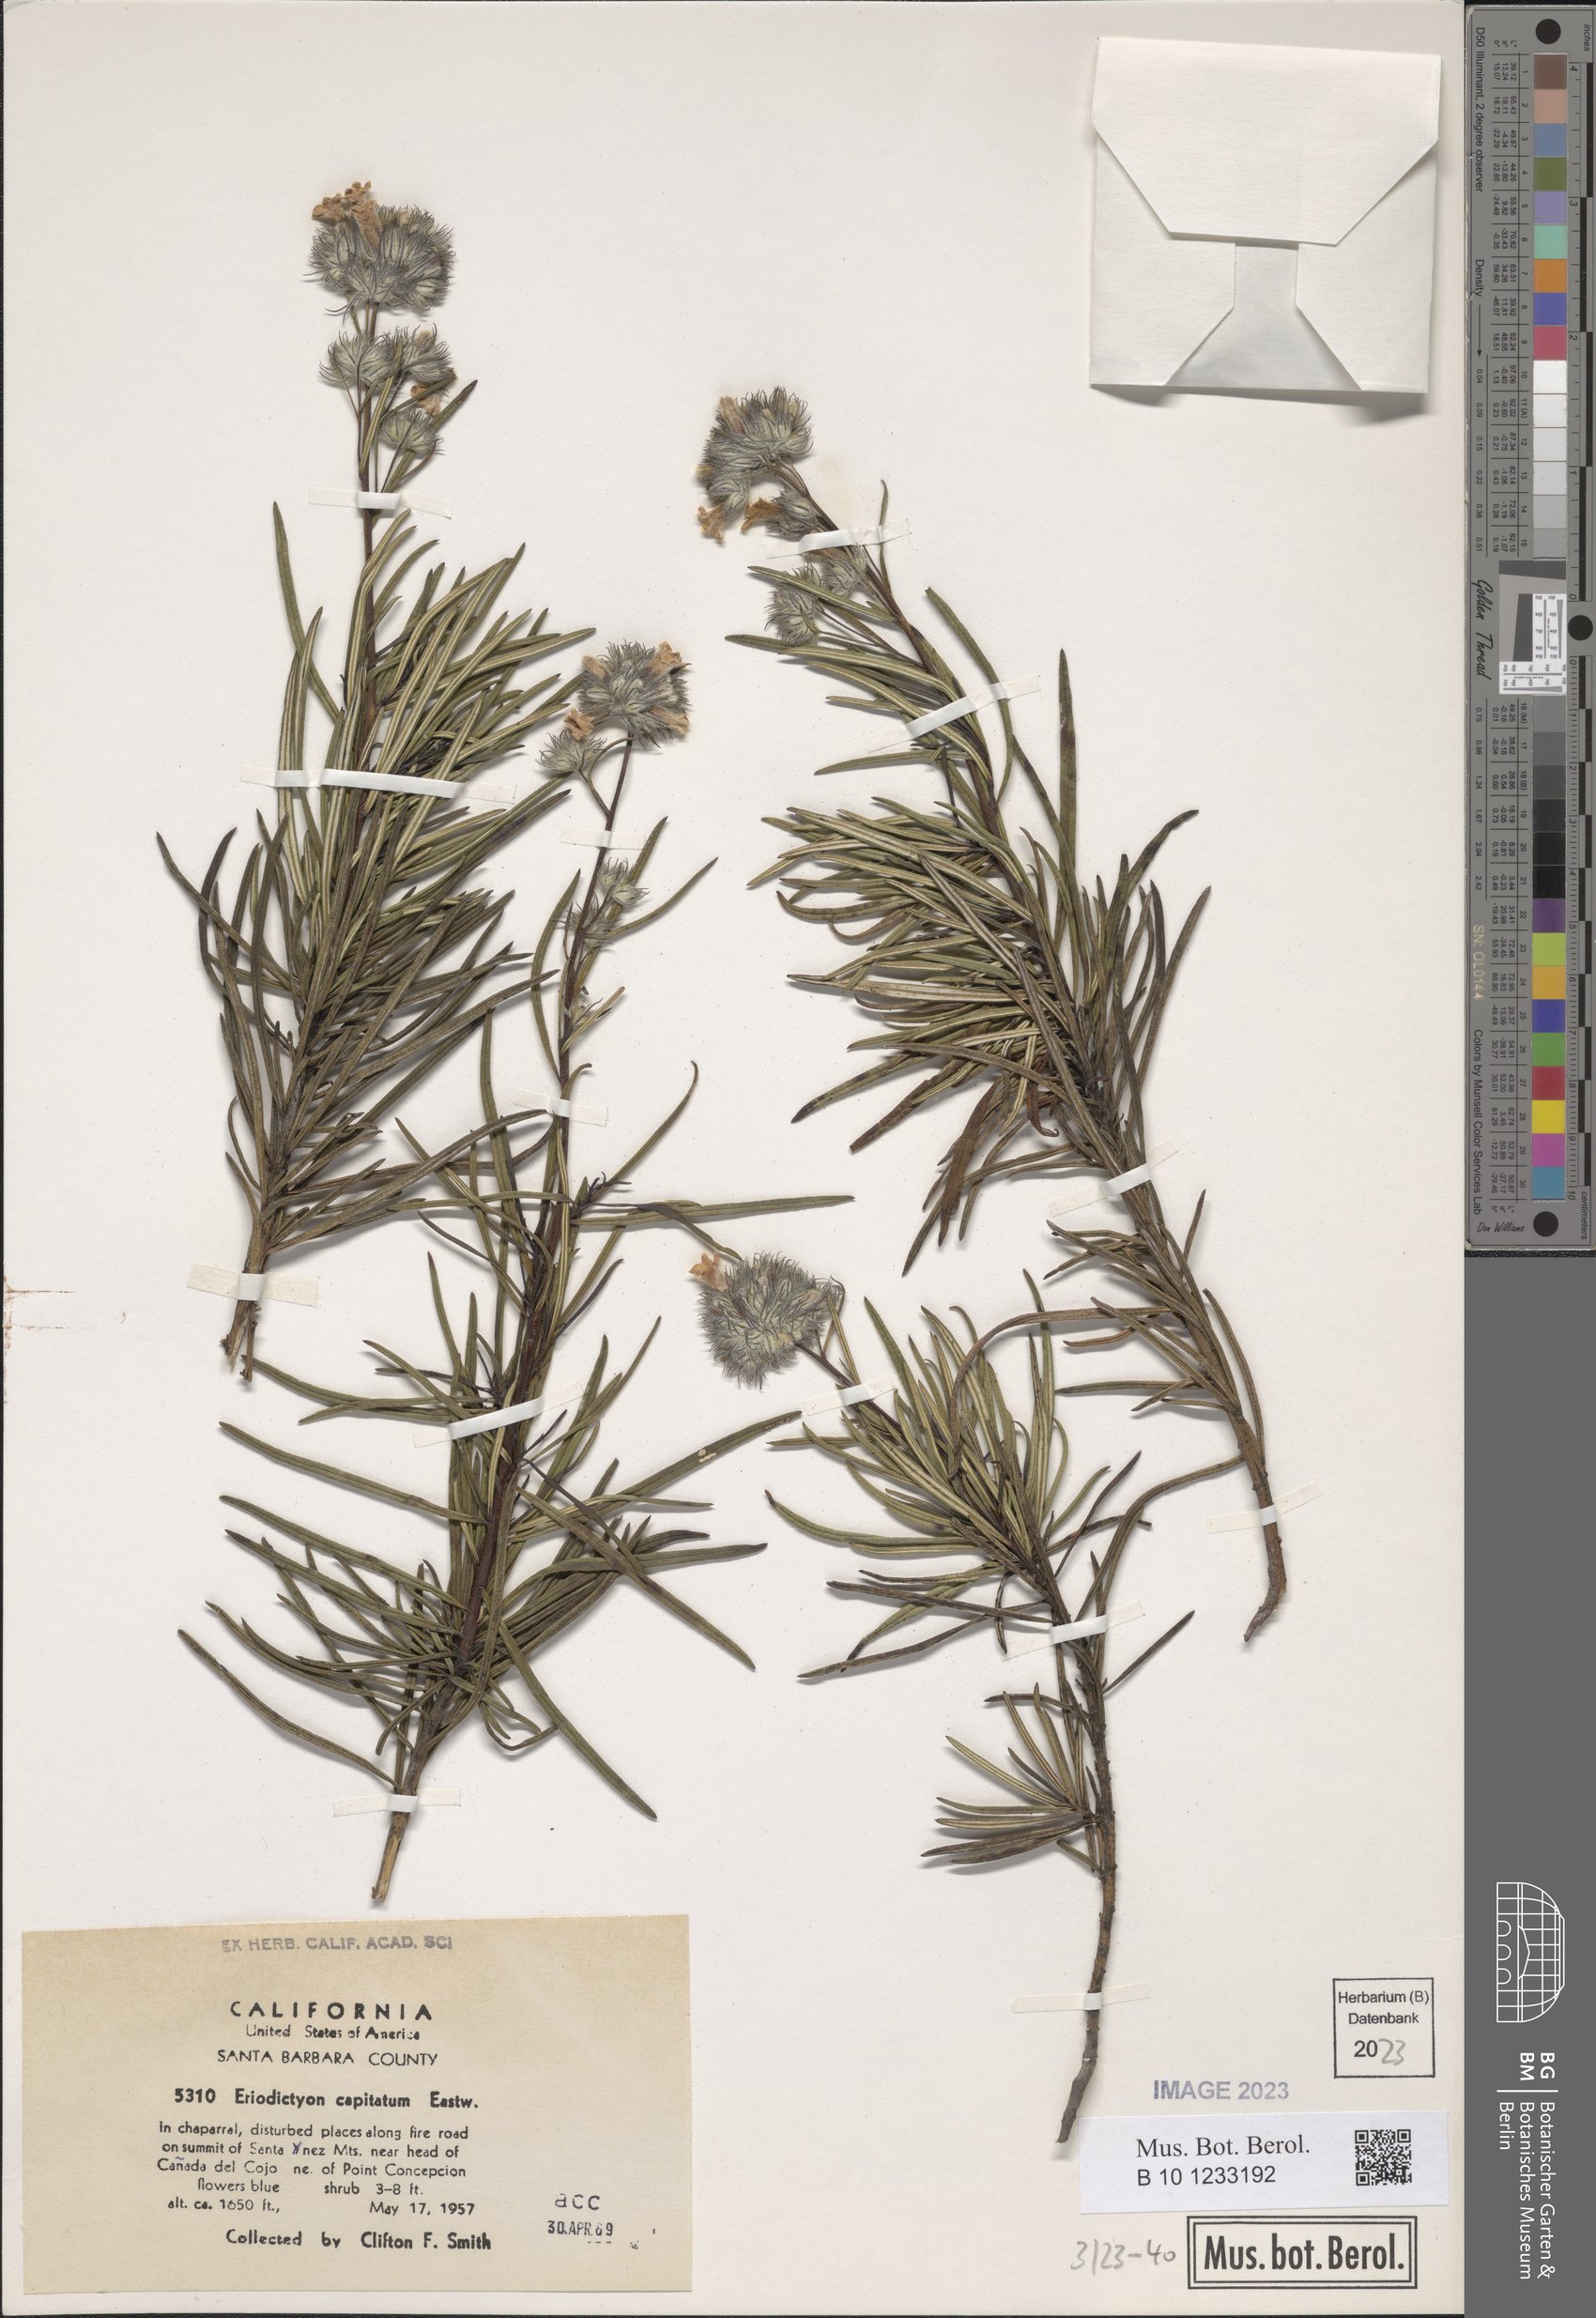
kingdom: Plantae
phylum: Tracheophyta
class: Magnoliopsida
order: Boraginales
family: Namaceae
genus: Eriodictyon
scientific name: Eriodictyon capitatum
